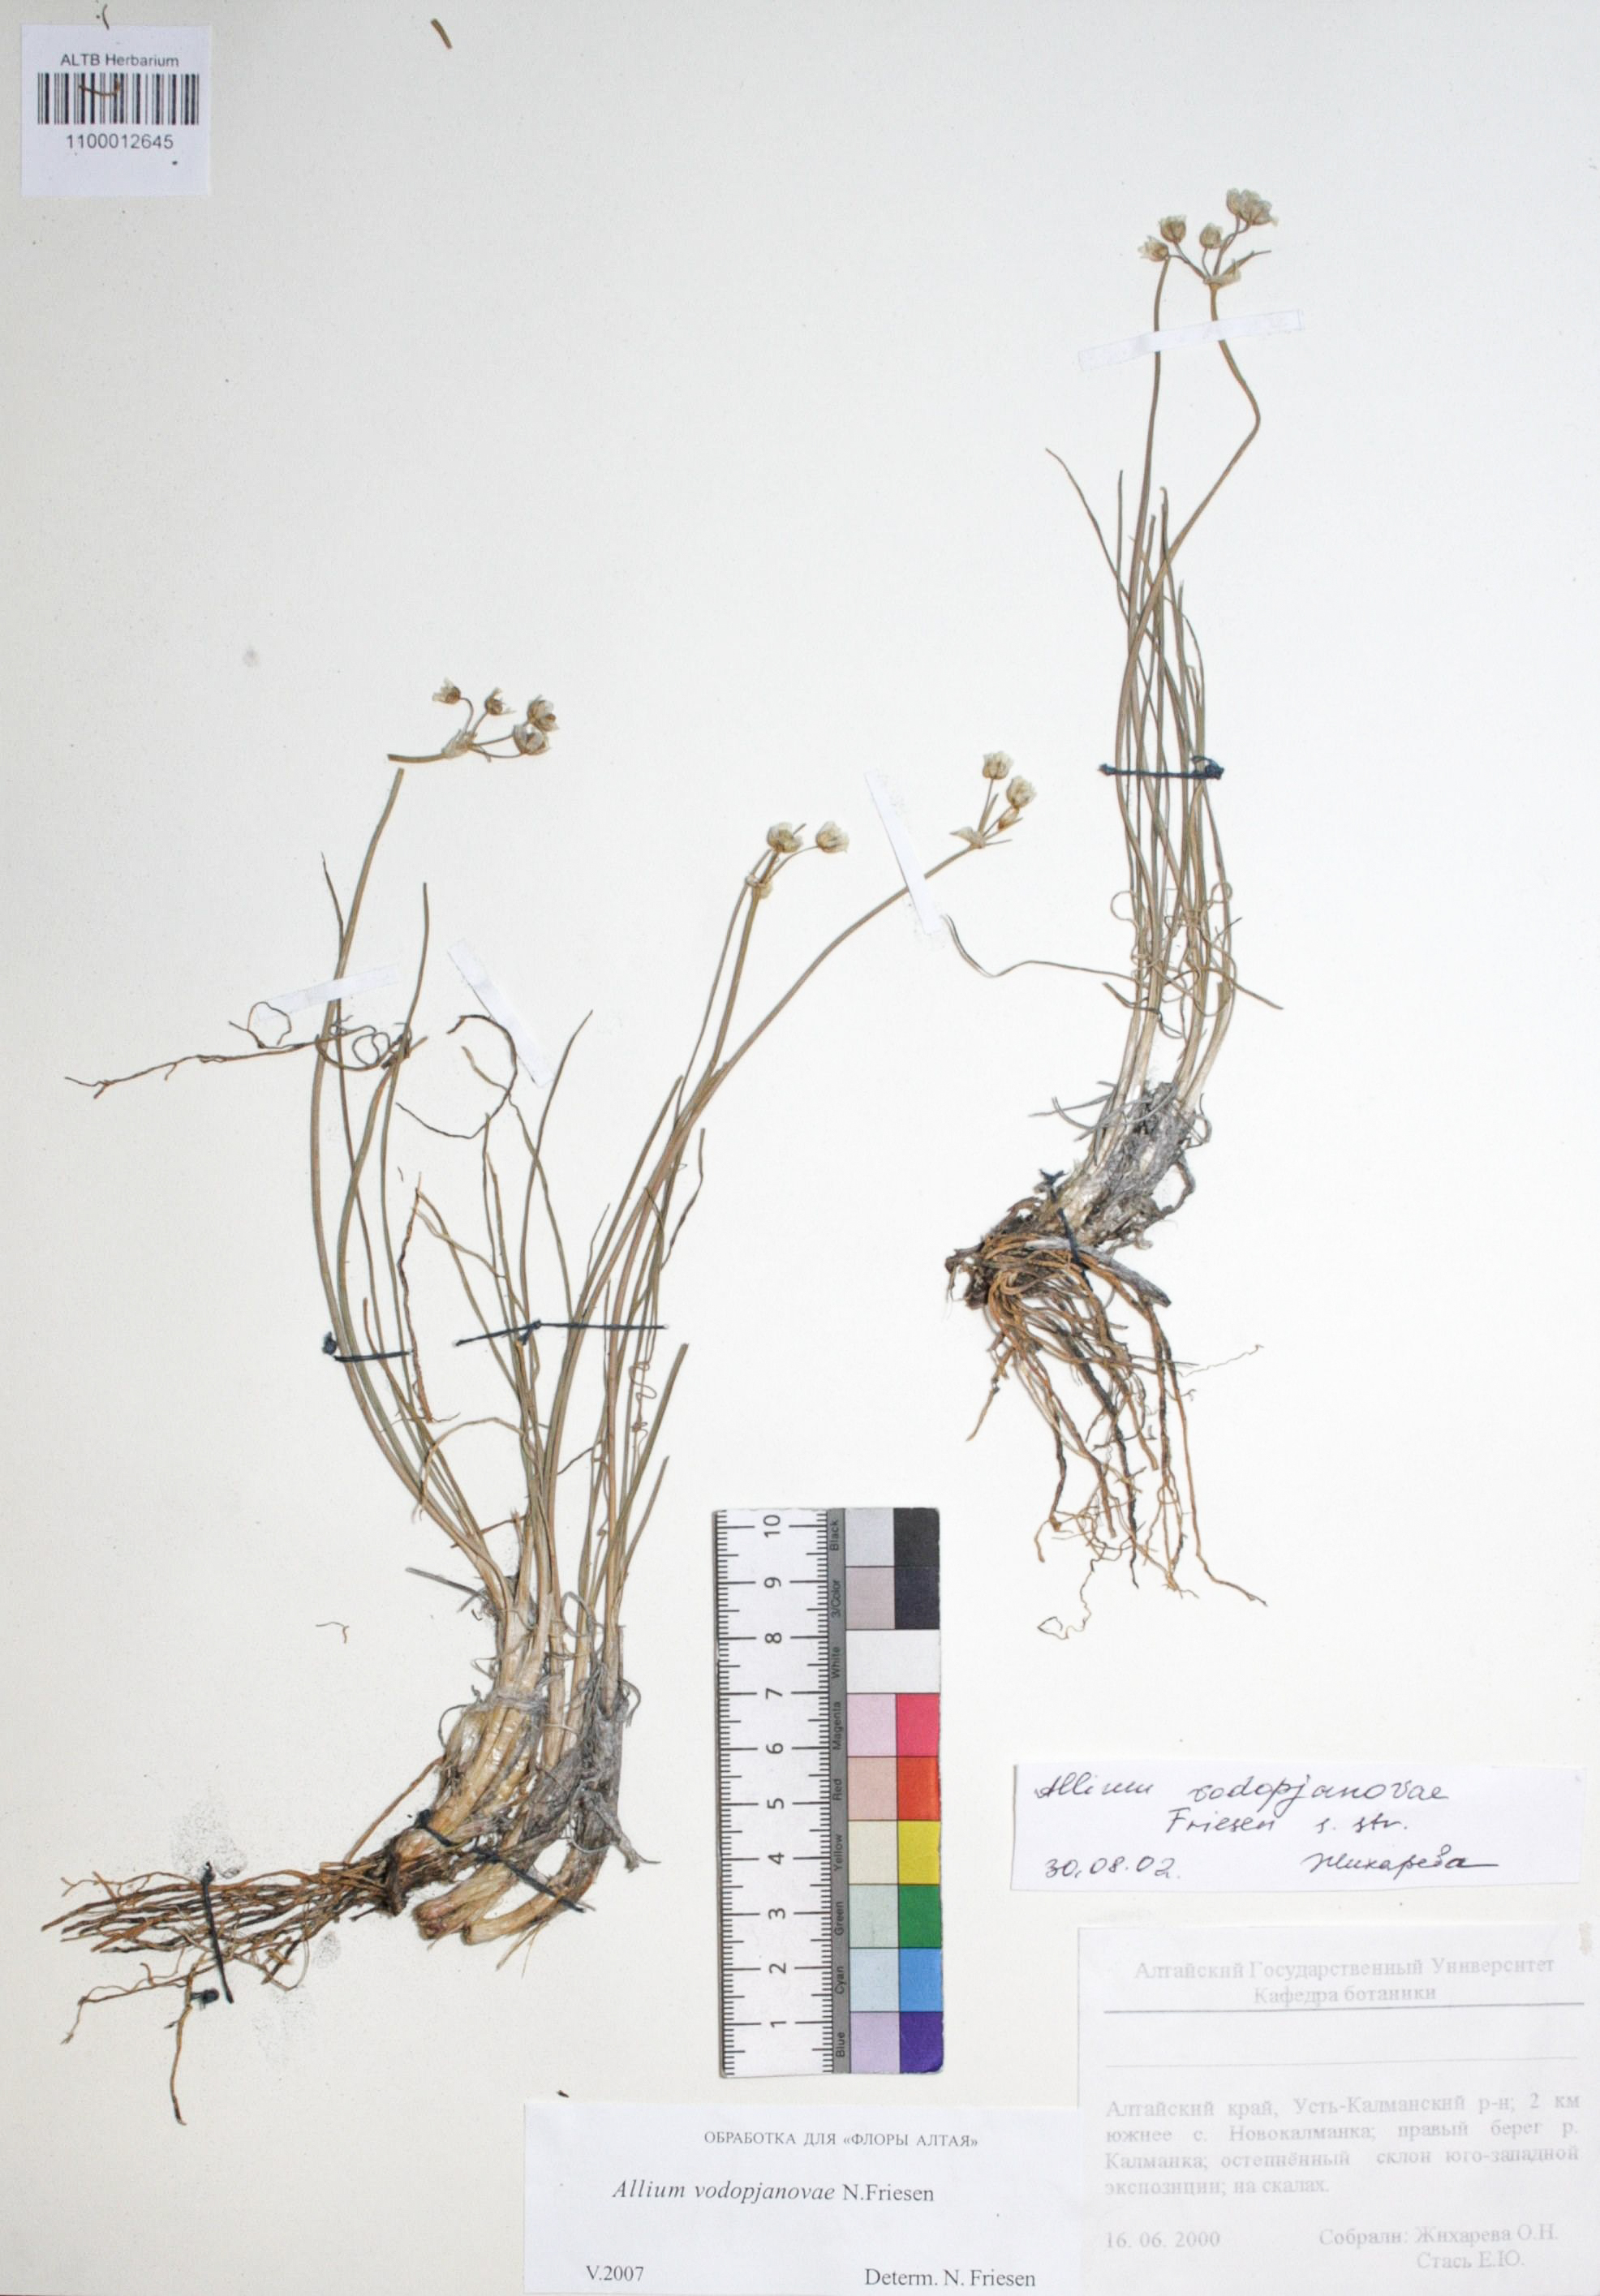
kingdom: Plantae
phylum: Tracheophyta
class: Liliopsida
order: Asparagales
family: Amaryllidaceae
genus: Allium
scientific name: Allium vodopjanovae
